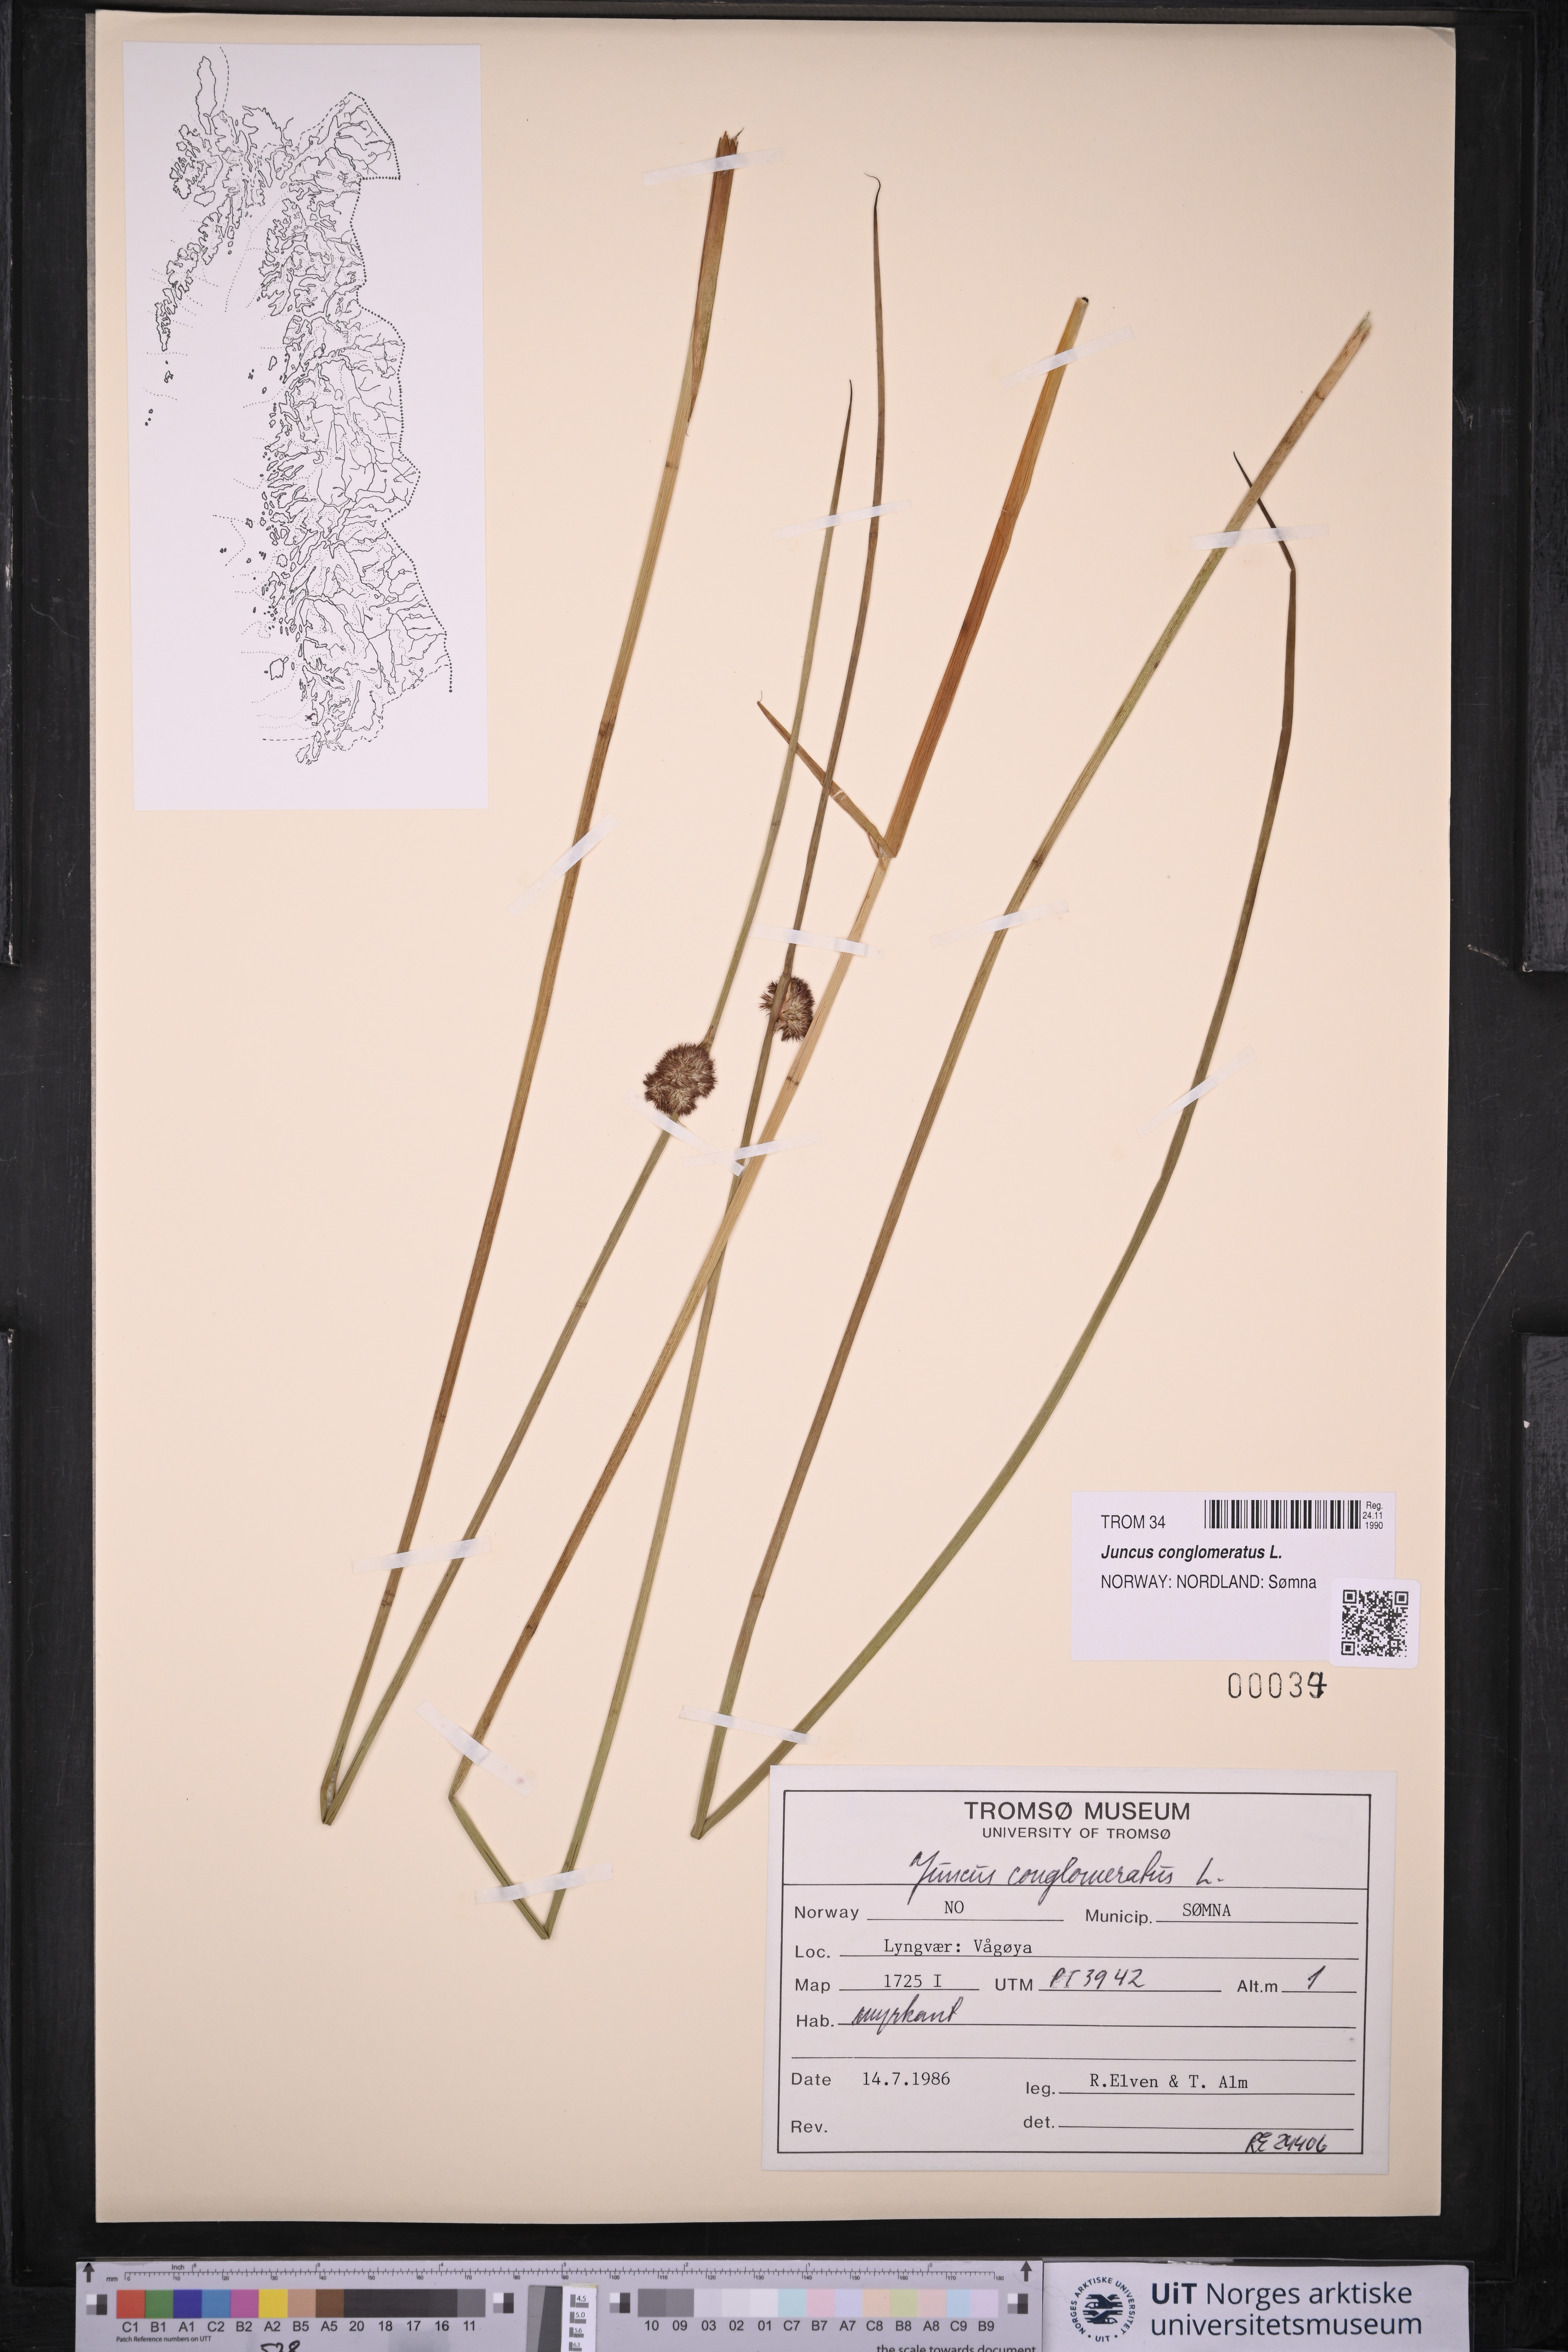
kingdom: Plantae
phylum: Tracheophyta
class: Liliopsida
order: Poales
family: Juncaceae
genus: Juncus
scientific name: Juncus conglomeratus
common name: Compact rush
